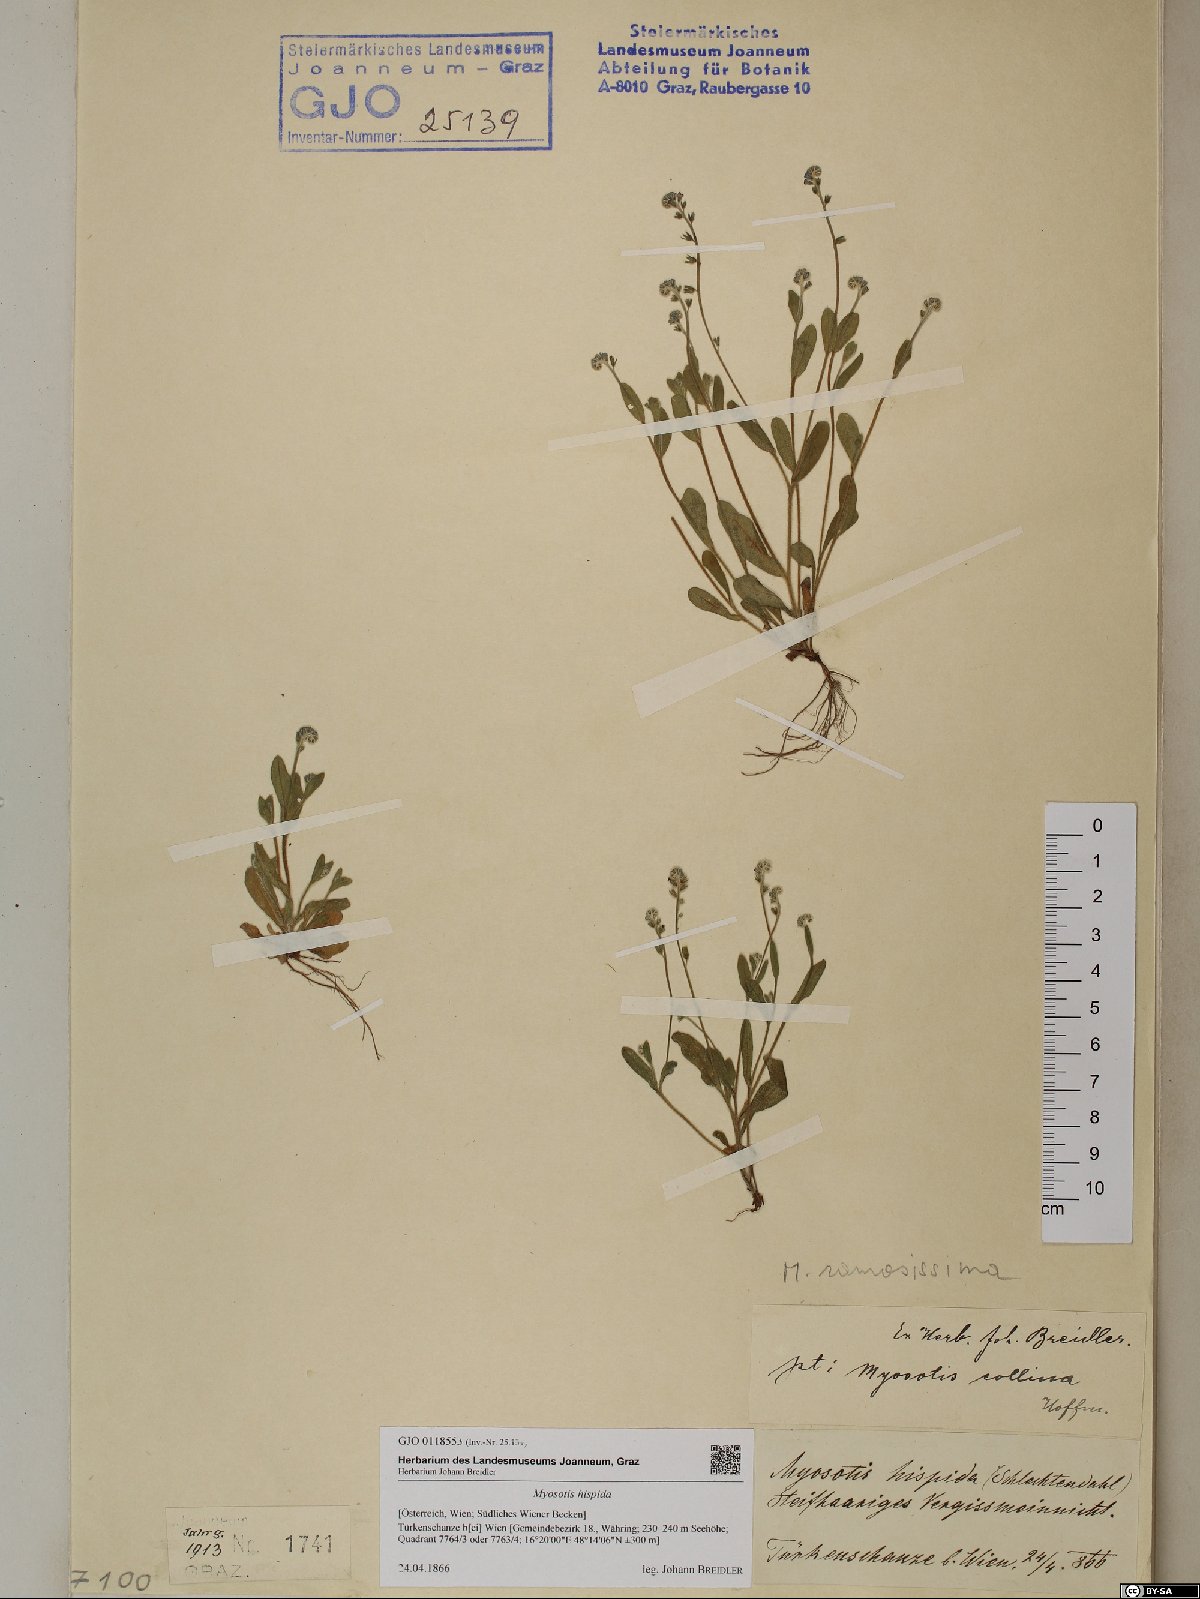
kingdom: Plantae
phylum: Tracheophyta
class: Magnoliopsida
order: Boraginales
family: Boraginaceae
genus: Myosotis
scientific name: Myosotis ramosissima
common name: Early forget-me-not
